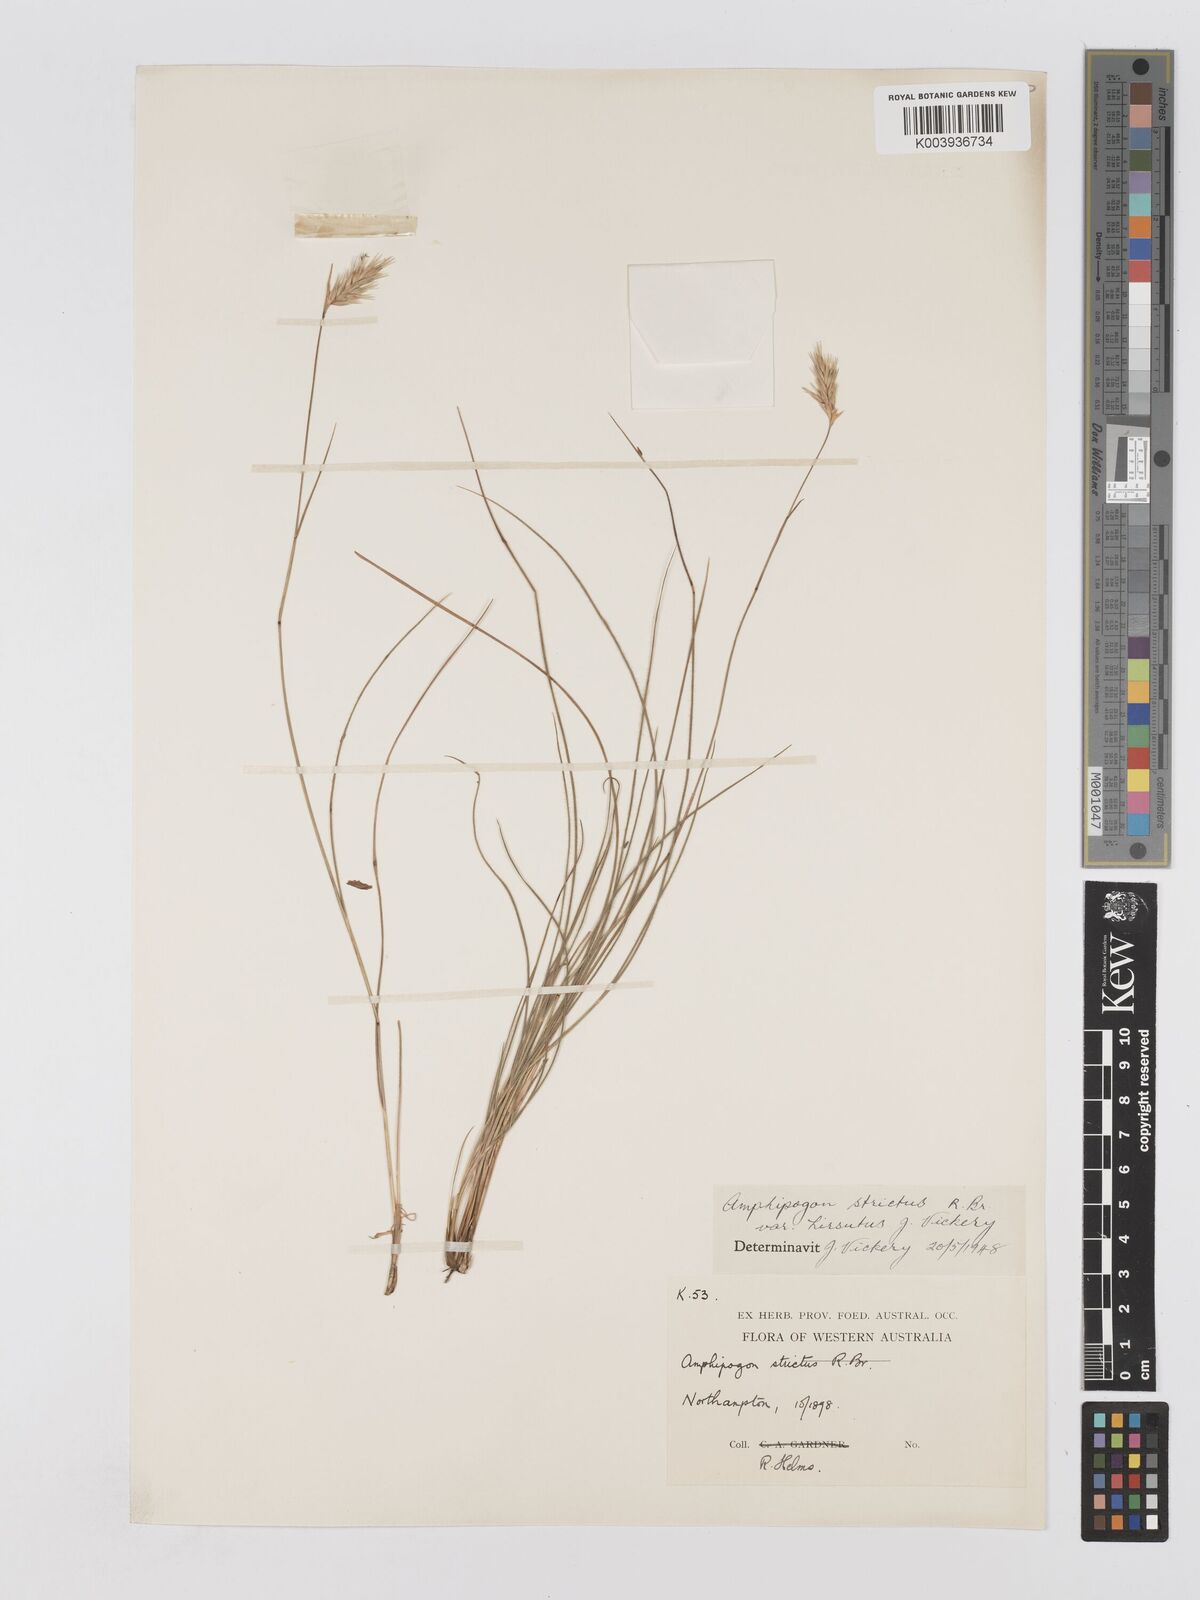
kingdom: Plantae
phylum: Tracheophyta
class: Liliopsida
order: Poales
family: Poaceae
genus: Amphipogon
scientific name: Amphipogon strictus
